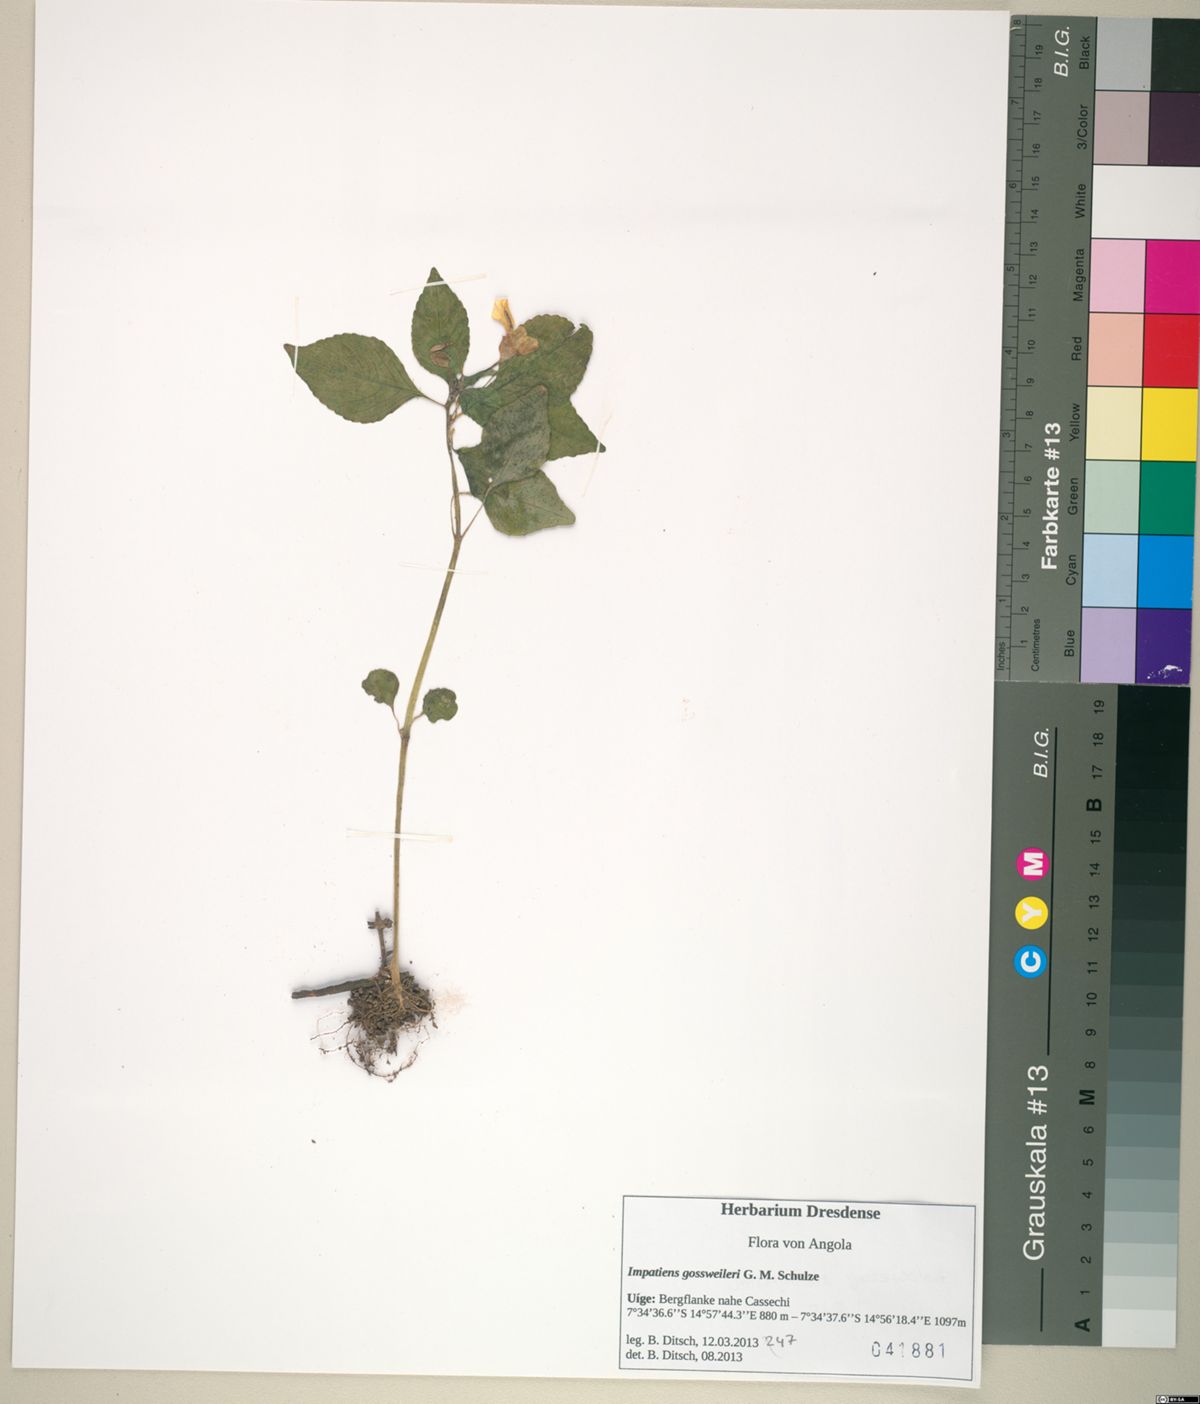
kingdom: Plantae
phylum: Tracheophyta
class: Magnoliopsida
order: Ericales
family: Balsaminaceae
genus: Impatiens
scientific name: Impatiens gossweileri
